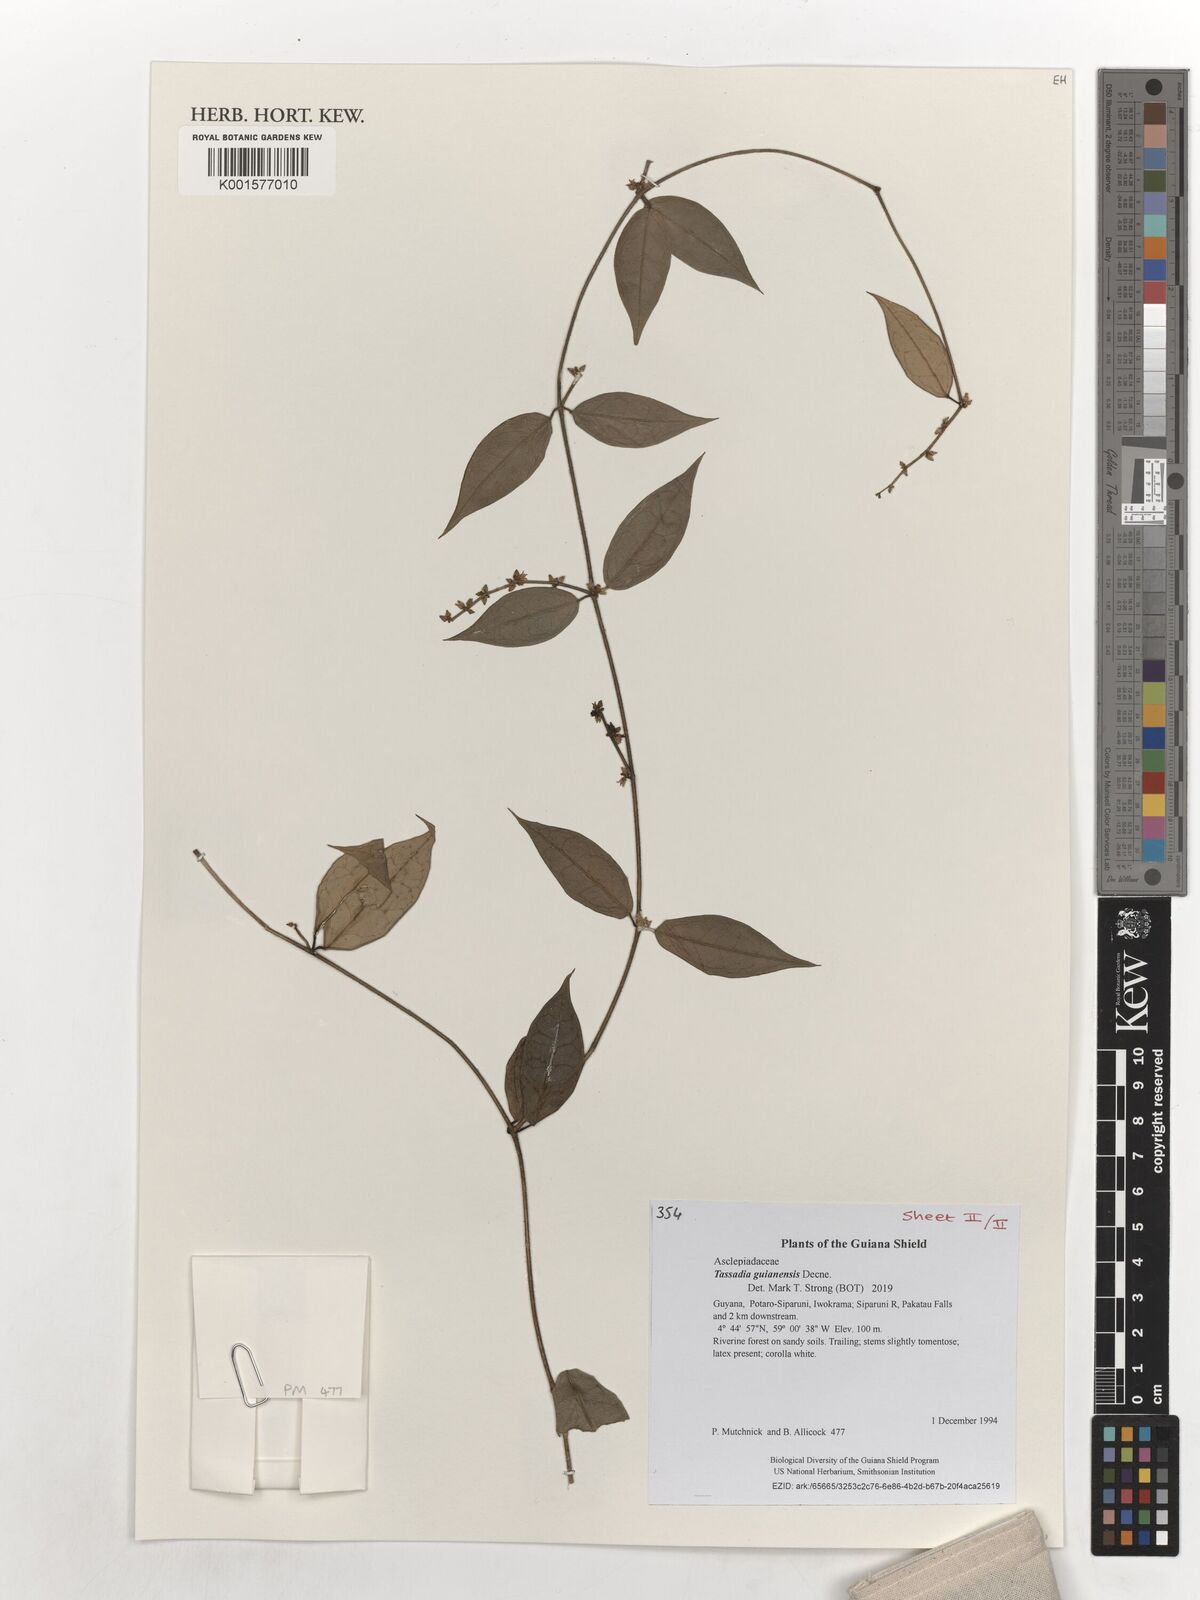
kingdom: Plantae
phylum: Tracheophyta
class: Magnoliopsida
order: Gentianales
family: Apocynaceae
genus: Tassadia
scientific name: Tassadia guianensis
